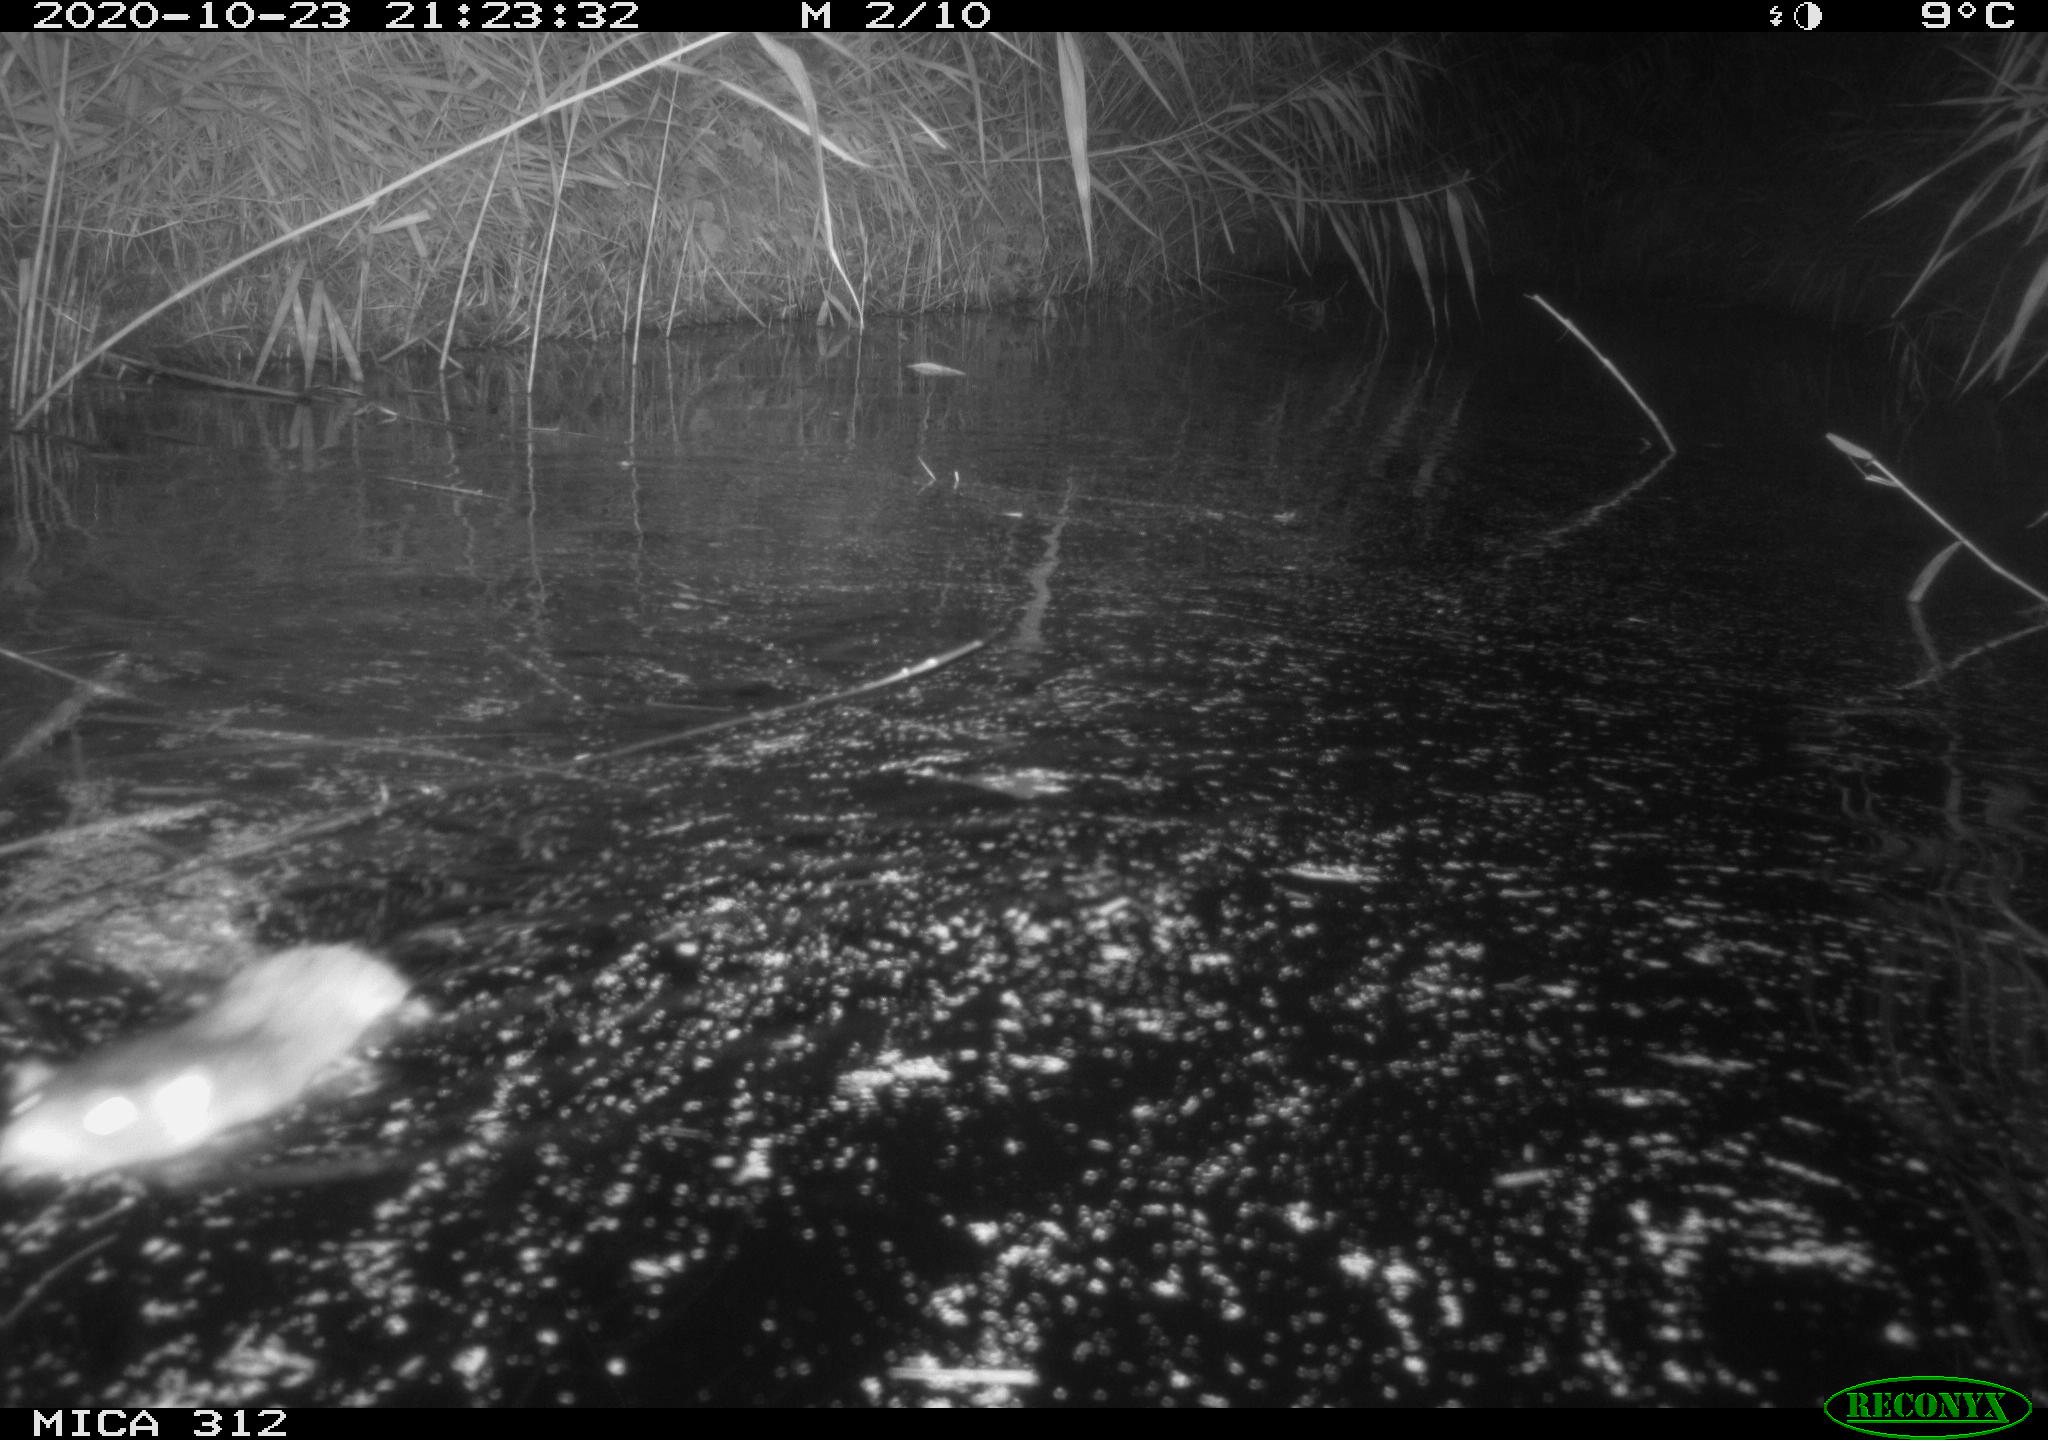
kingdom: Animalia
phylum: Chordata
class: Mammalia
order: Rodentia
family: Muridae
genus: Rattus
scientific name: Rattus norvegicus
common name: Brown rat
